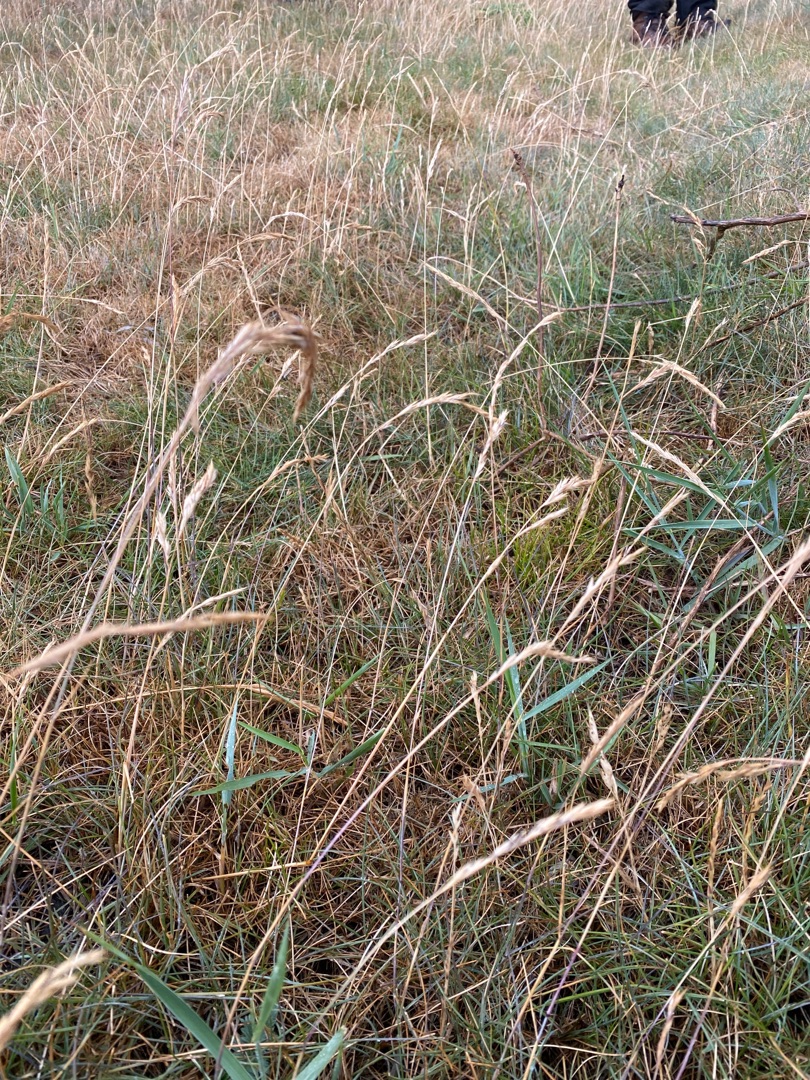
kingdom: Plantae
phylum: Tracheophyta
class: Liliopsida
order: Poales
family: Poaceae
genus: Festuca
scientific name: Festuca
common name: Svingelslægten
